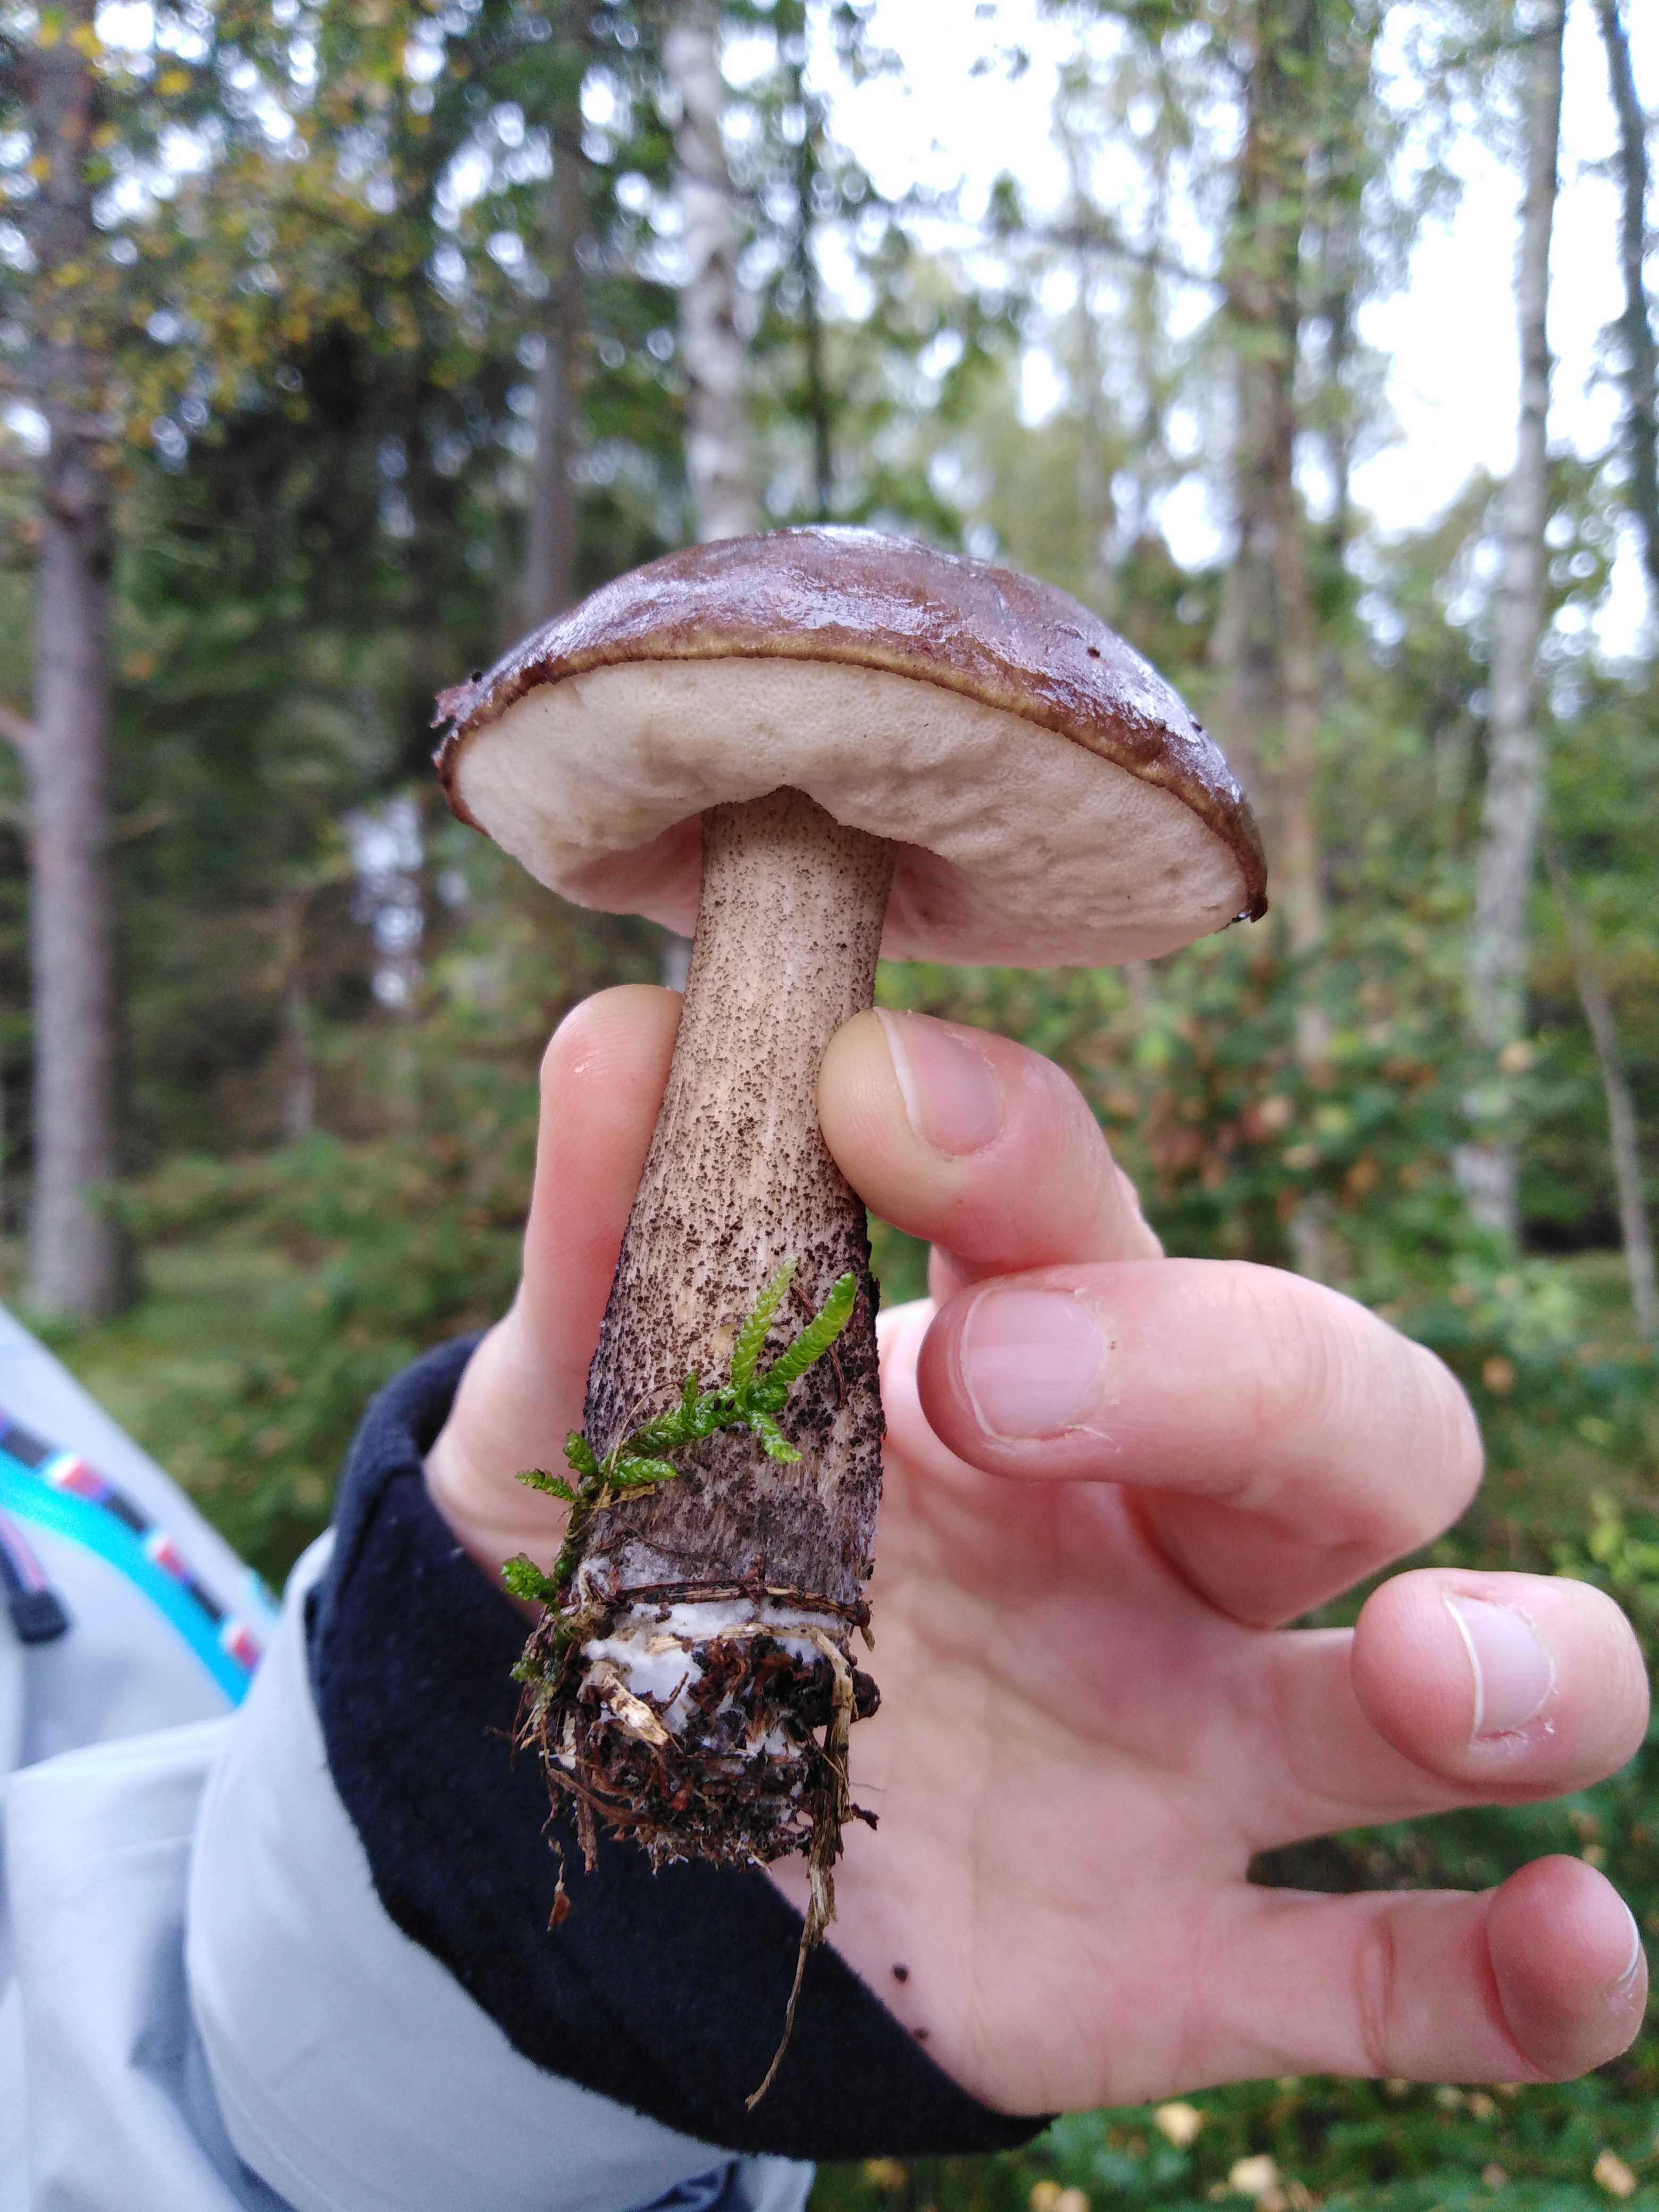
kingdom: Fungi
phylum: Basidiomycota
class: Agaricomycetes
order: Boletales
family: Boletaceae
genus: Leccinum
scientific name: Leccinum scabrum
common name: brun skælrørhat
